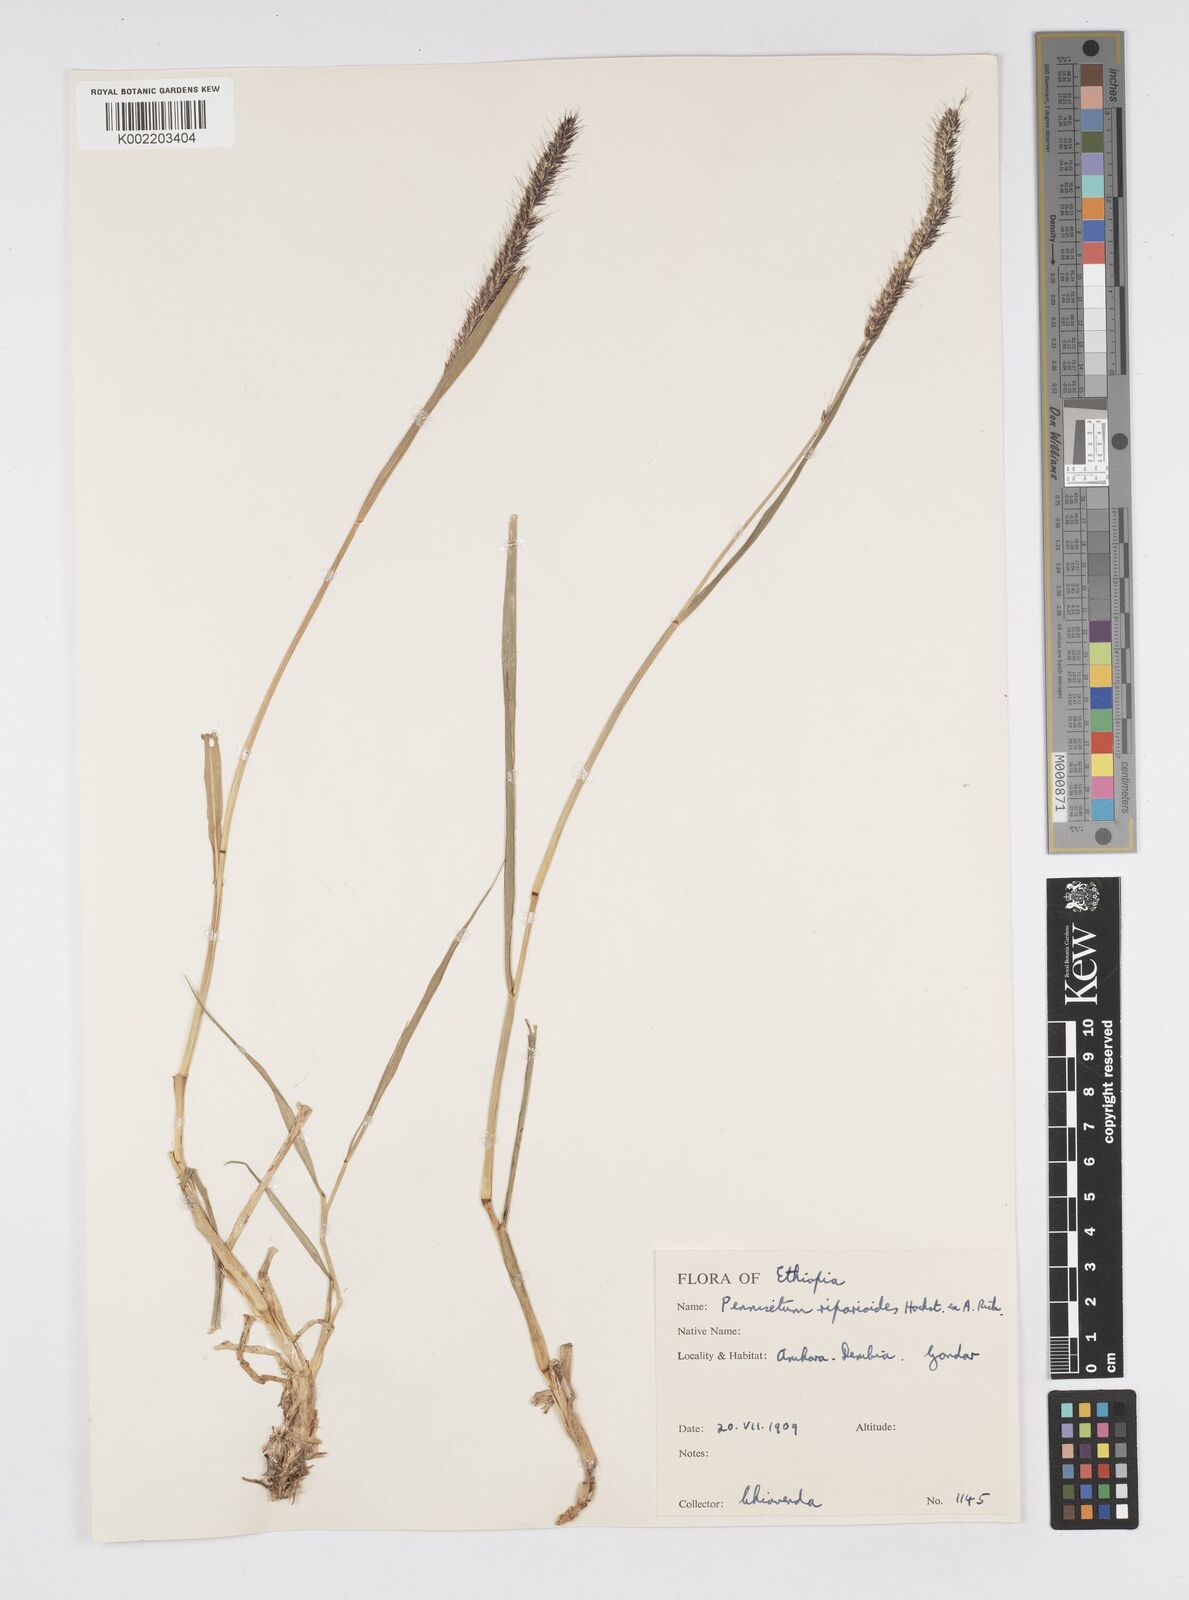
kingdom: Plantae
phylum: Tracheophyta
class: Liliopsida
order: Poales
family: Poaceae
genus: Cenchrus
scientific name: Cenchrus caudatus
